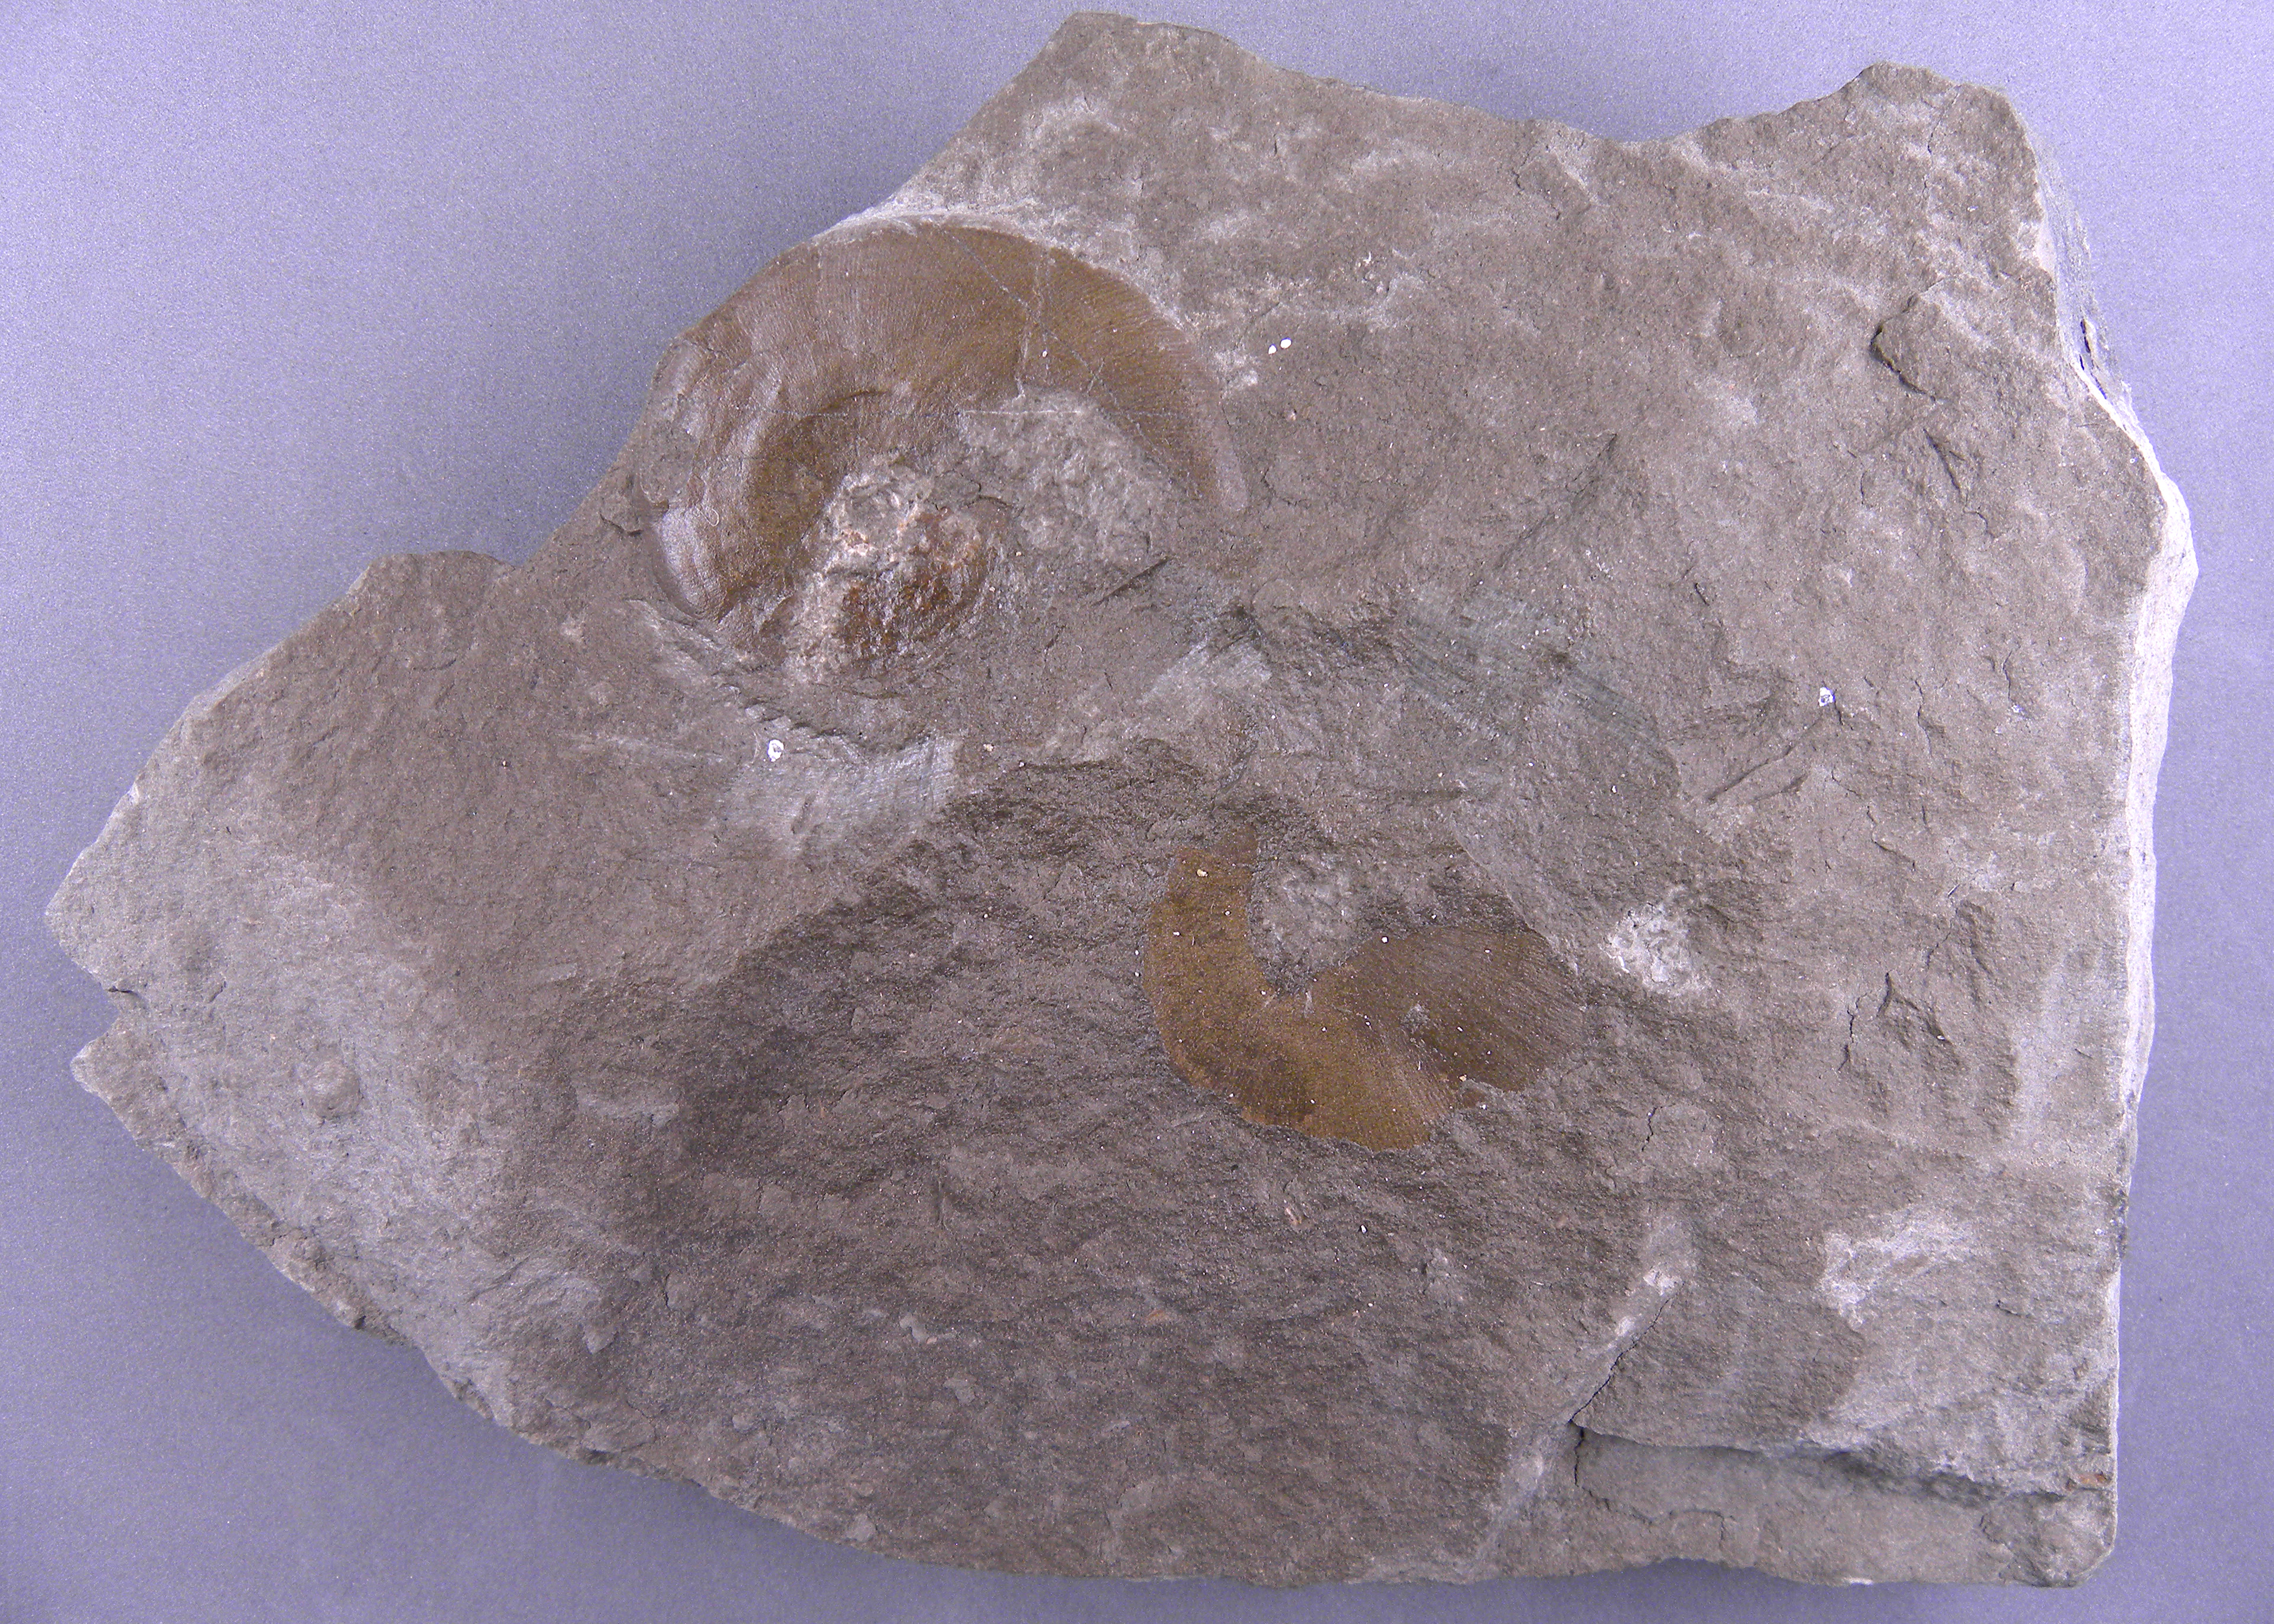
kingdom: Animalia
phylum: Mollusca
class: Cephalopoda
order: Phylloceratida
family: Phylloceratidae
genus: Phylloceras
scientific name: Phylloceras
